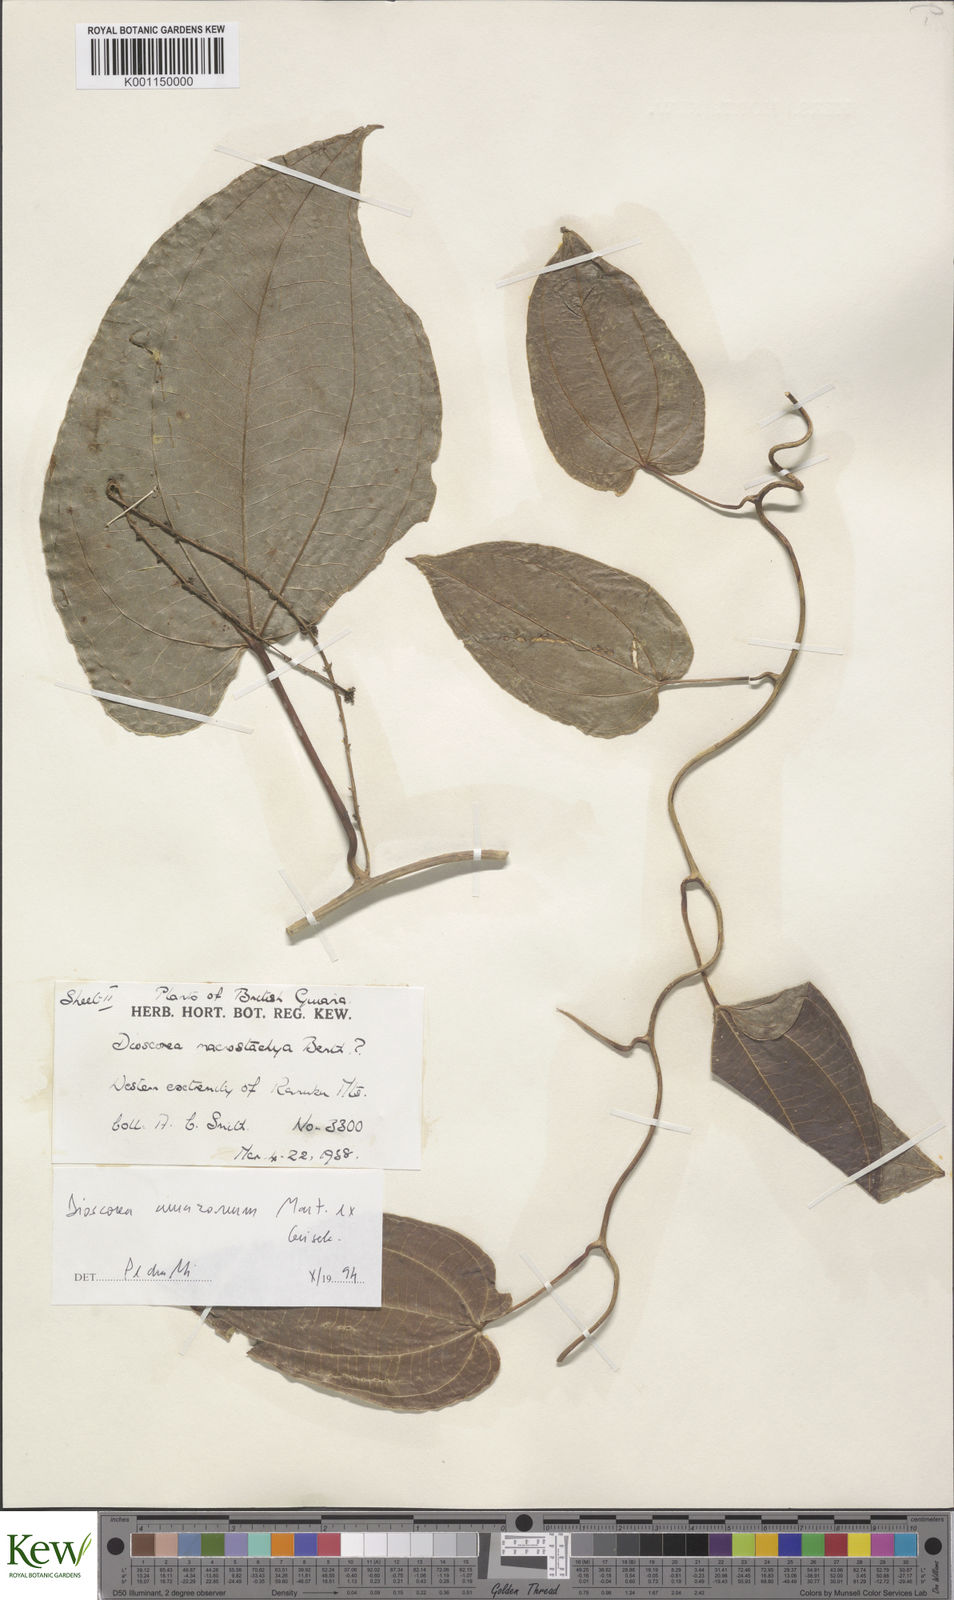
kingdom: Plantae
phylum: Tracheophyta
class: Liliopsida
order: Dioscoreales
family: Dioscoreaceae
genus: Dioscorea
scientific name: Dioscorea amazonum
